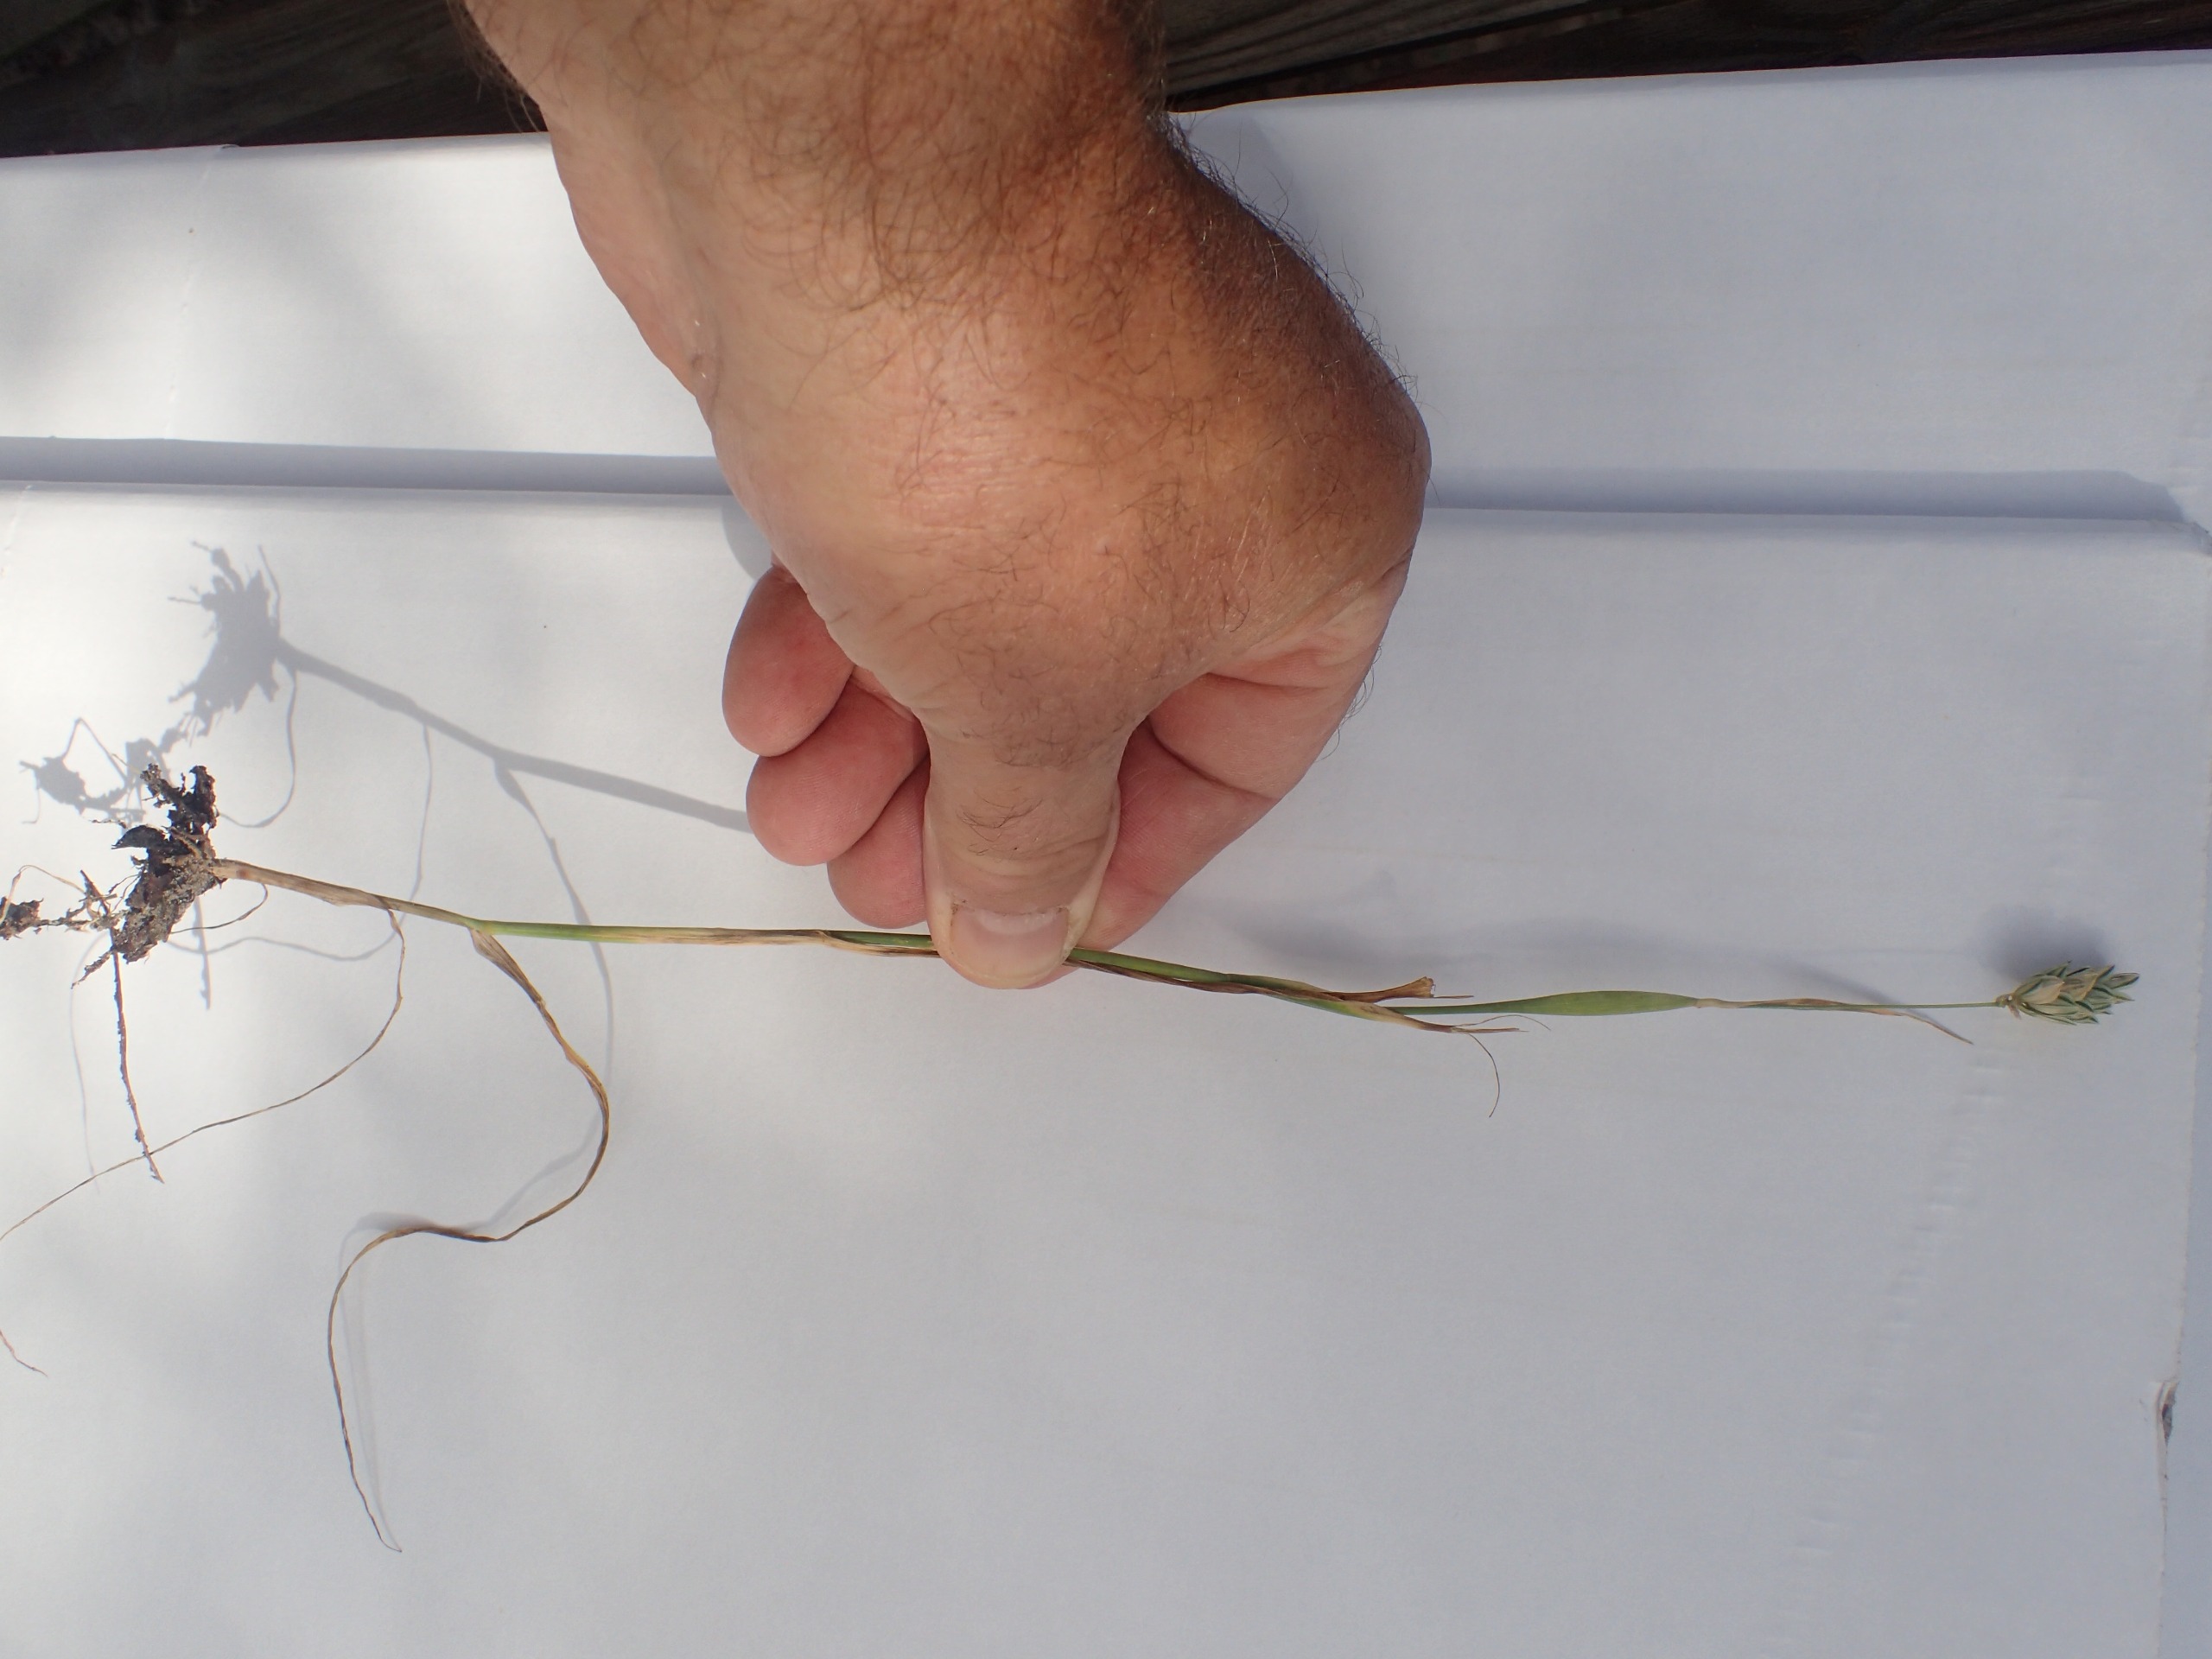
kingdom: Plantae
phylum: Tracheophyta
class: Liliopsida
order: Poales
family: Poaceae
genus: Phalaris
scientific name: Phalaris canariensis
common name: Kanariegræs
